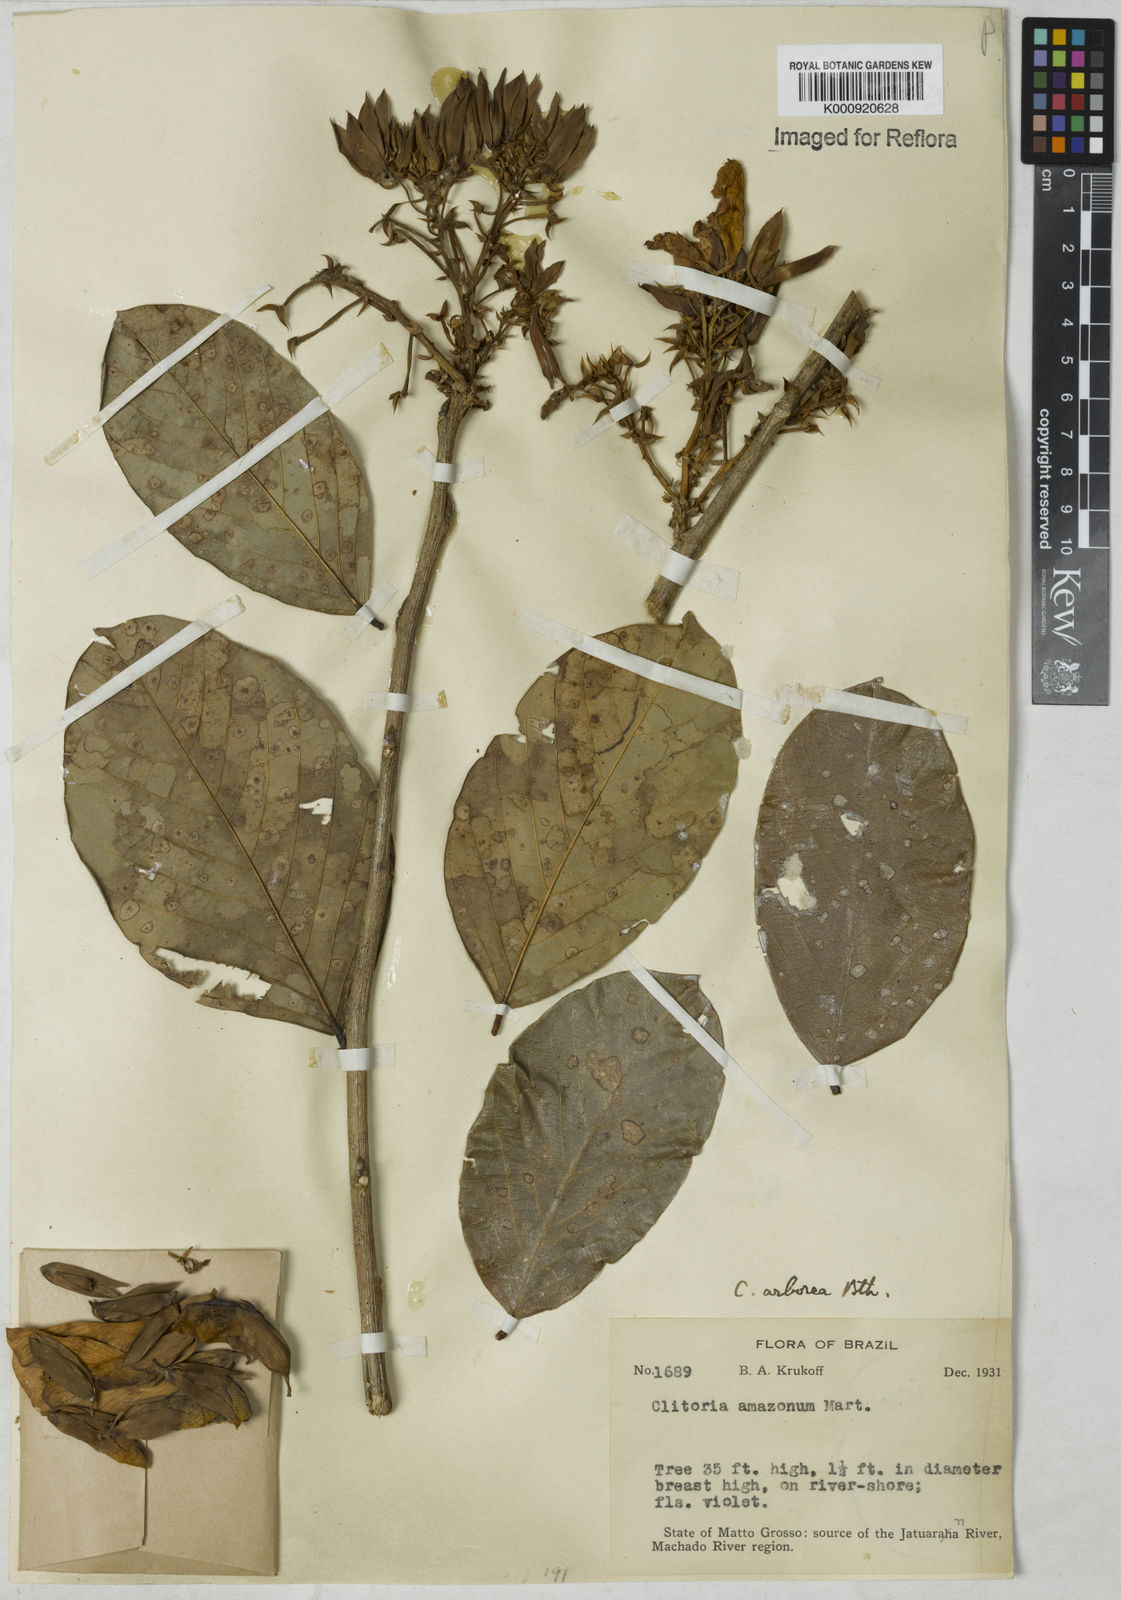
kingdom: Plantae
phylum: Tracheophyta
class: Magnoliopsida
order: Fabales
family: Fabaceae
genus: Clitoria
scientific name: Clitoria arborescens
